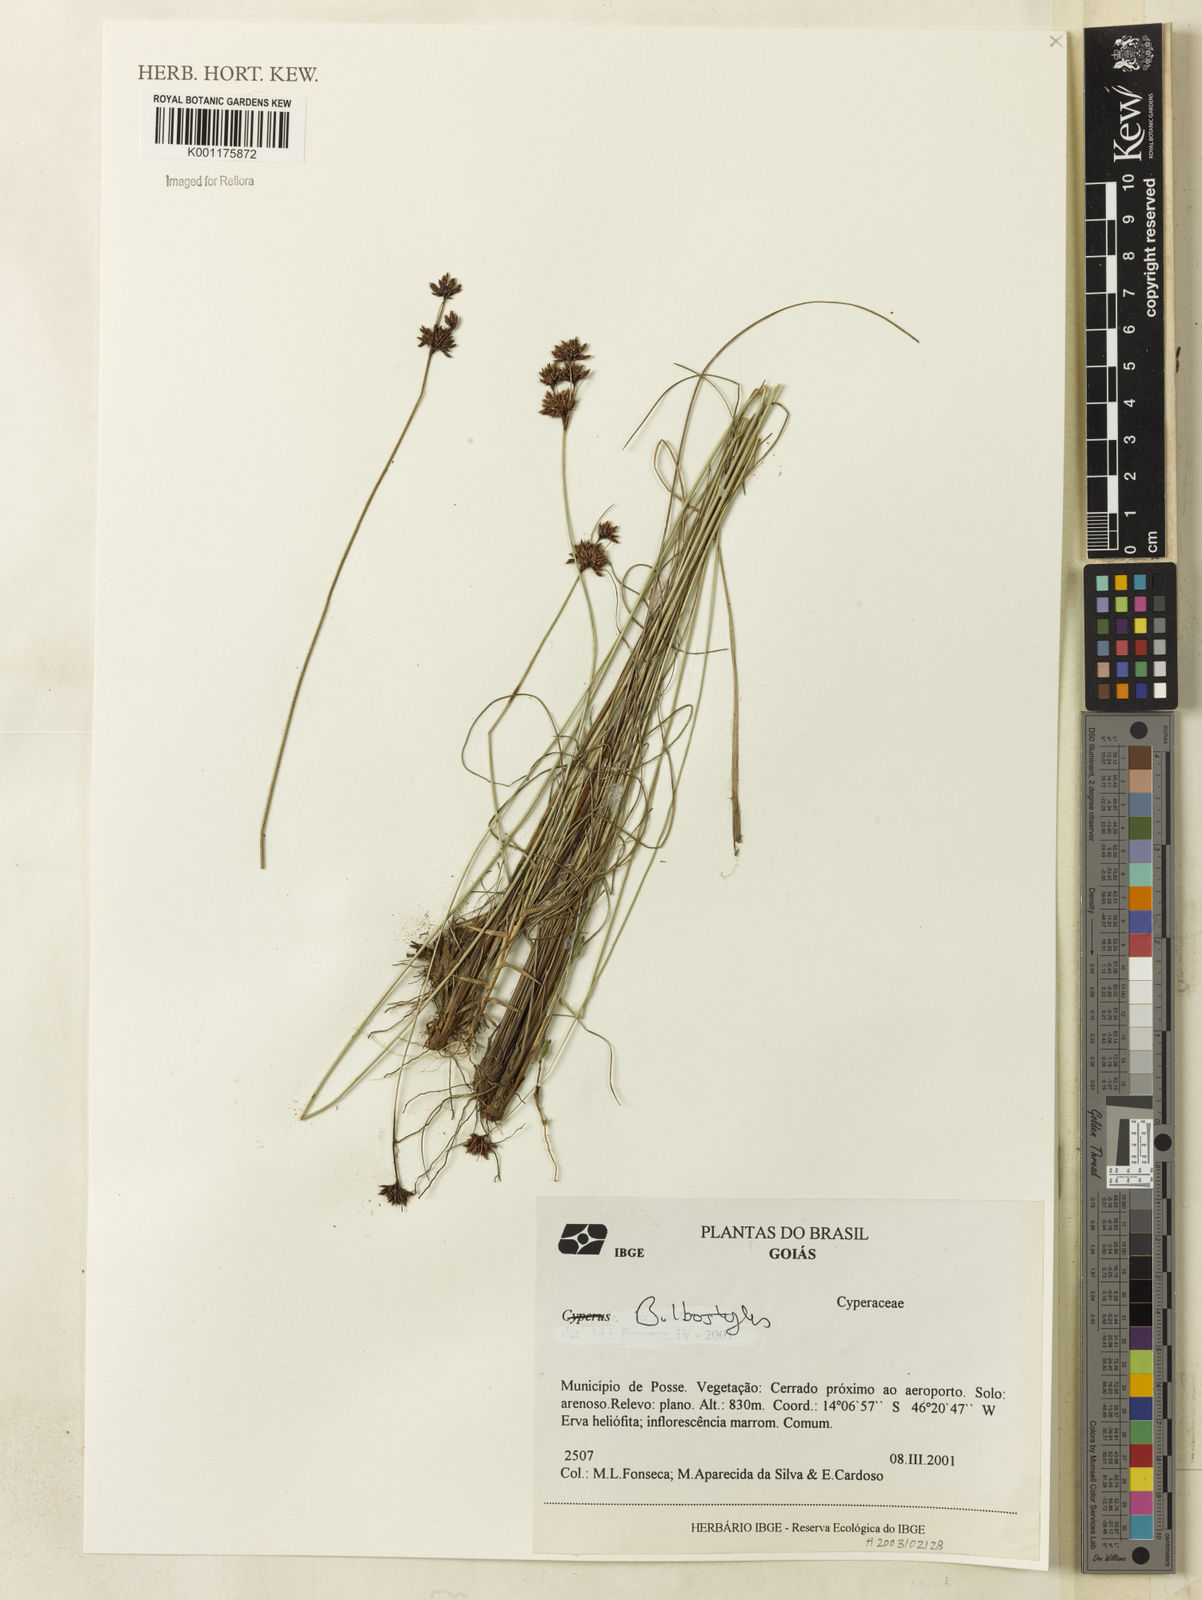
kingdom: Plantae
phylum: Tracheophyta
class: Magnoliopsida
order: Myrtales
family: Myrtaceae
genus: Myrcia
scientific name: Myrcia virgata
